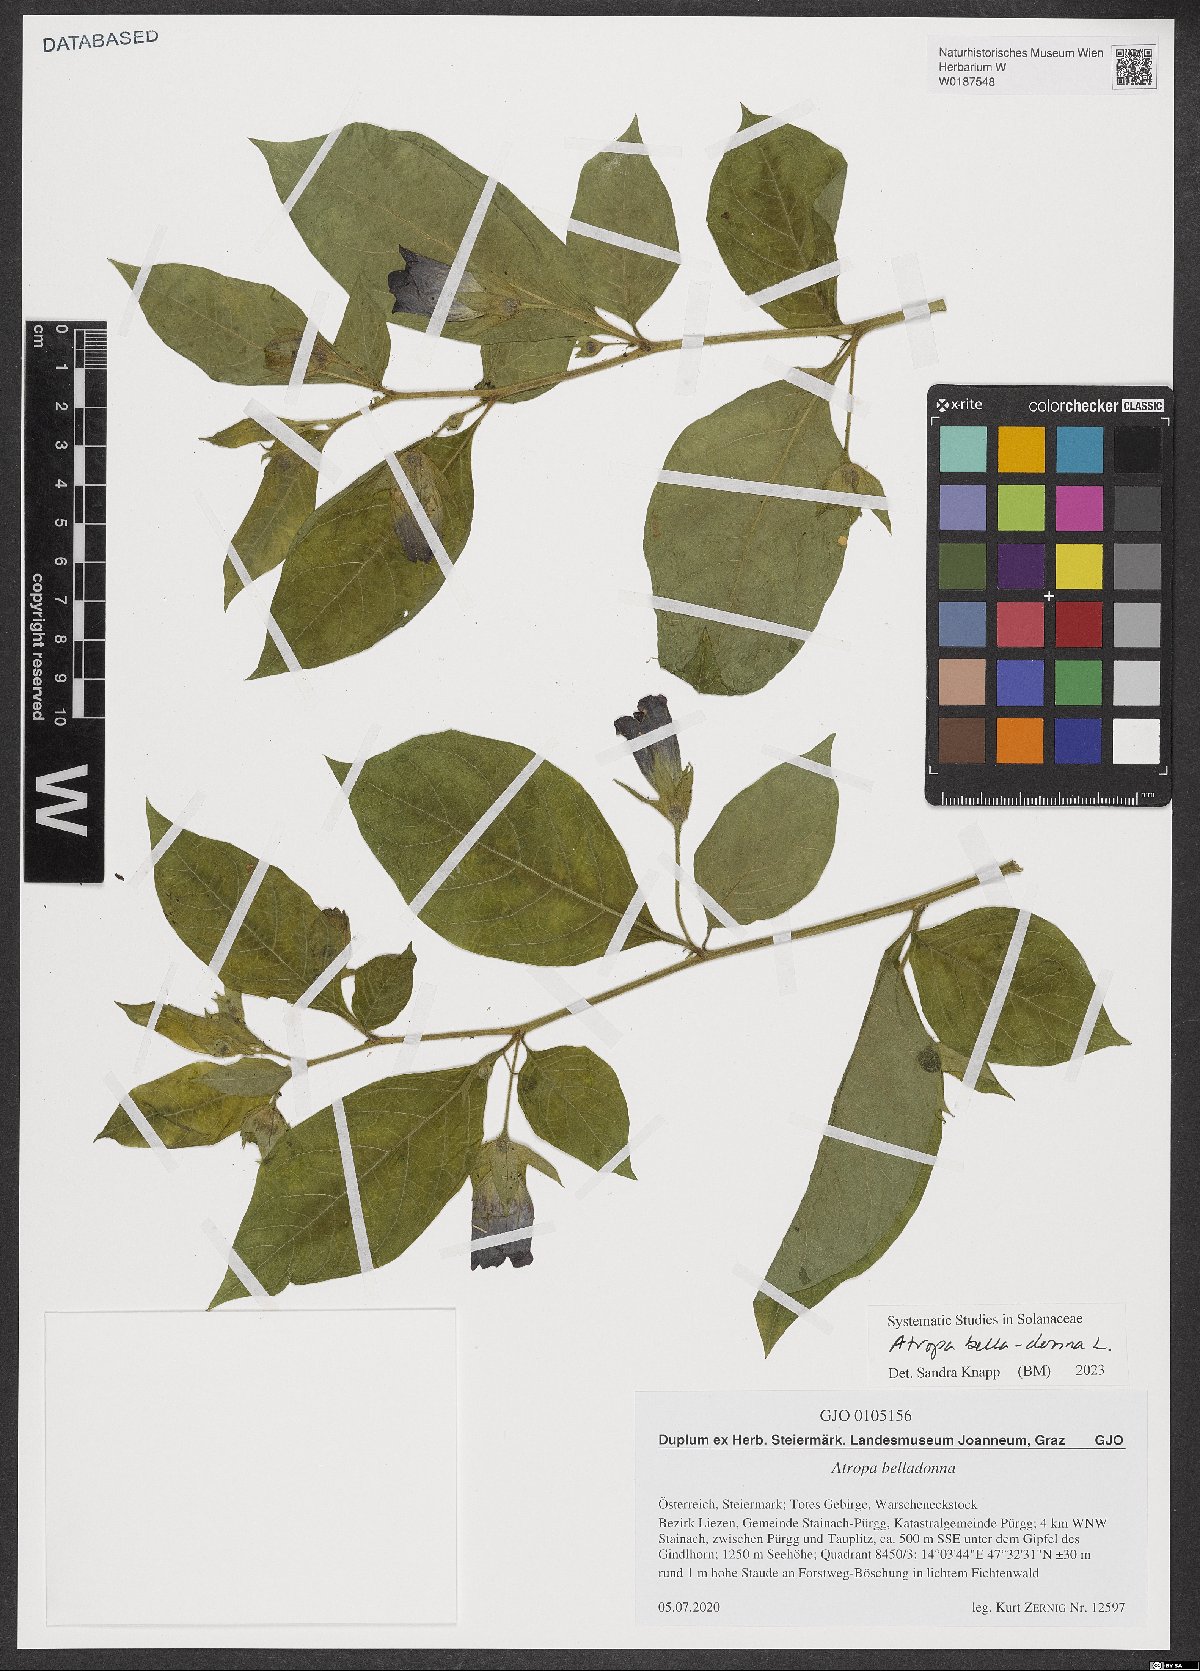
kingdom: Plantae
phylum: Tracheophyta
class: Magnoliopsida
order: Solanales
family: Solanaceae
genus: Atropa
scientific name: Atropa belladonna
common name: Deadly nightshade
